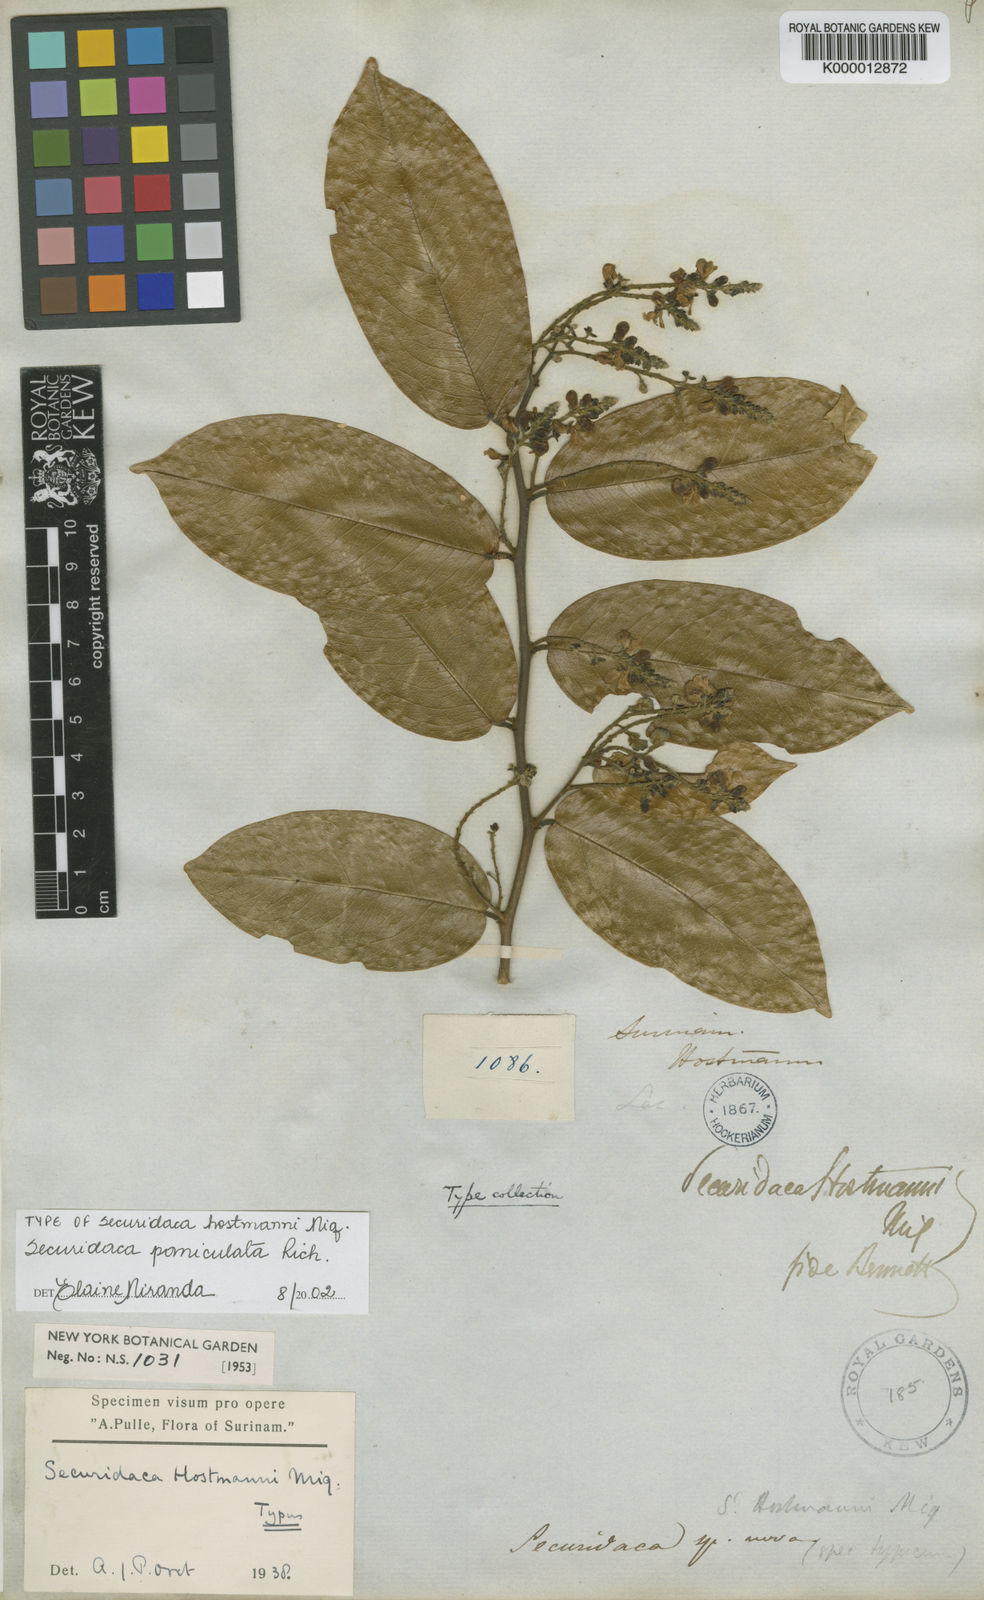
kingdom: Plantae
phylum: Tracheophyta
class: Magnoliopsida
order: Fabales
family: Polygalaceae
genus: Securidaca
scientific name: Securidaca paniculata
